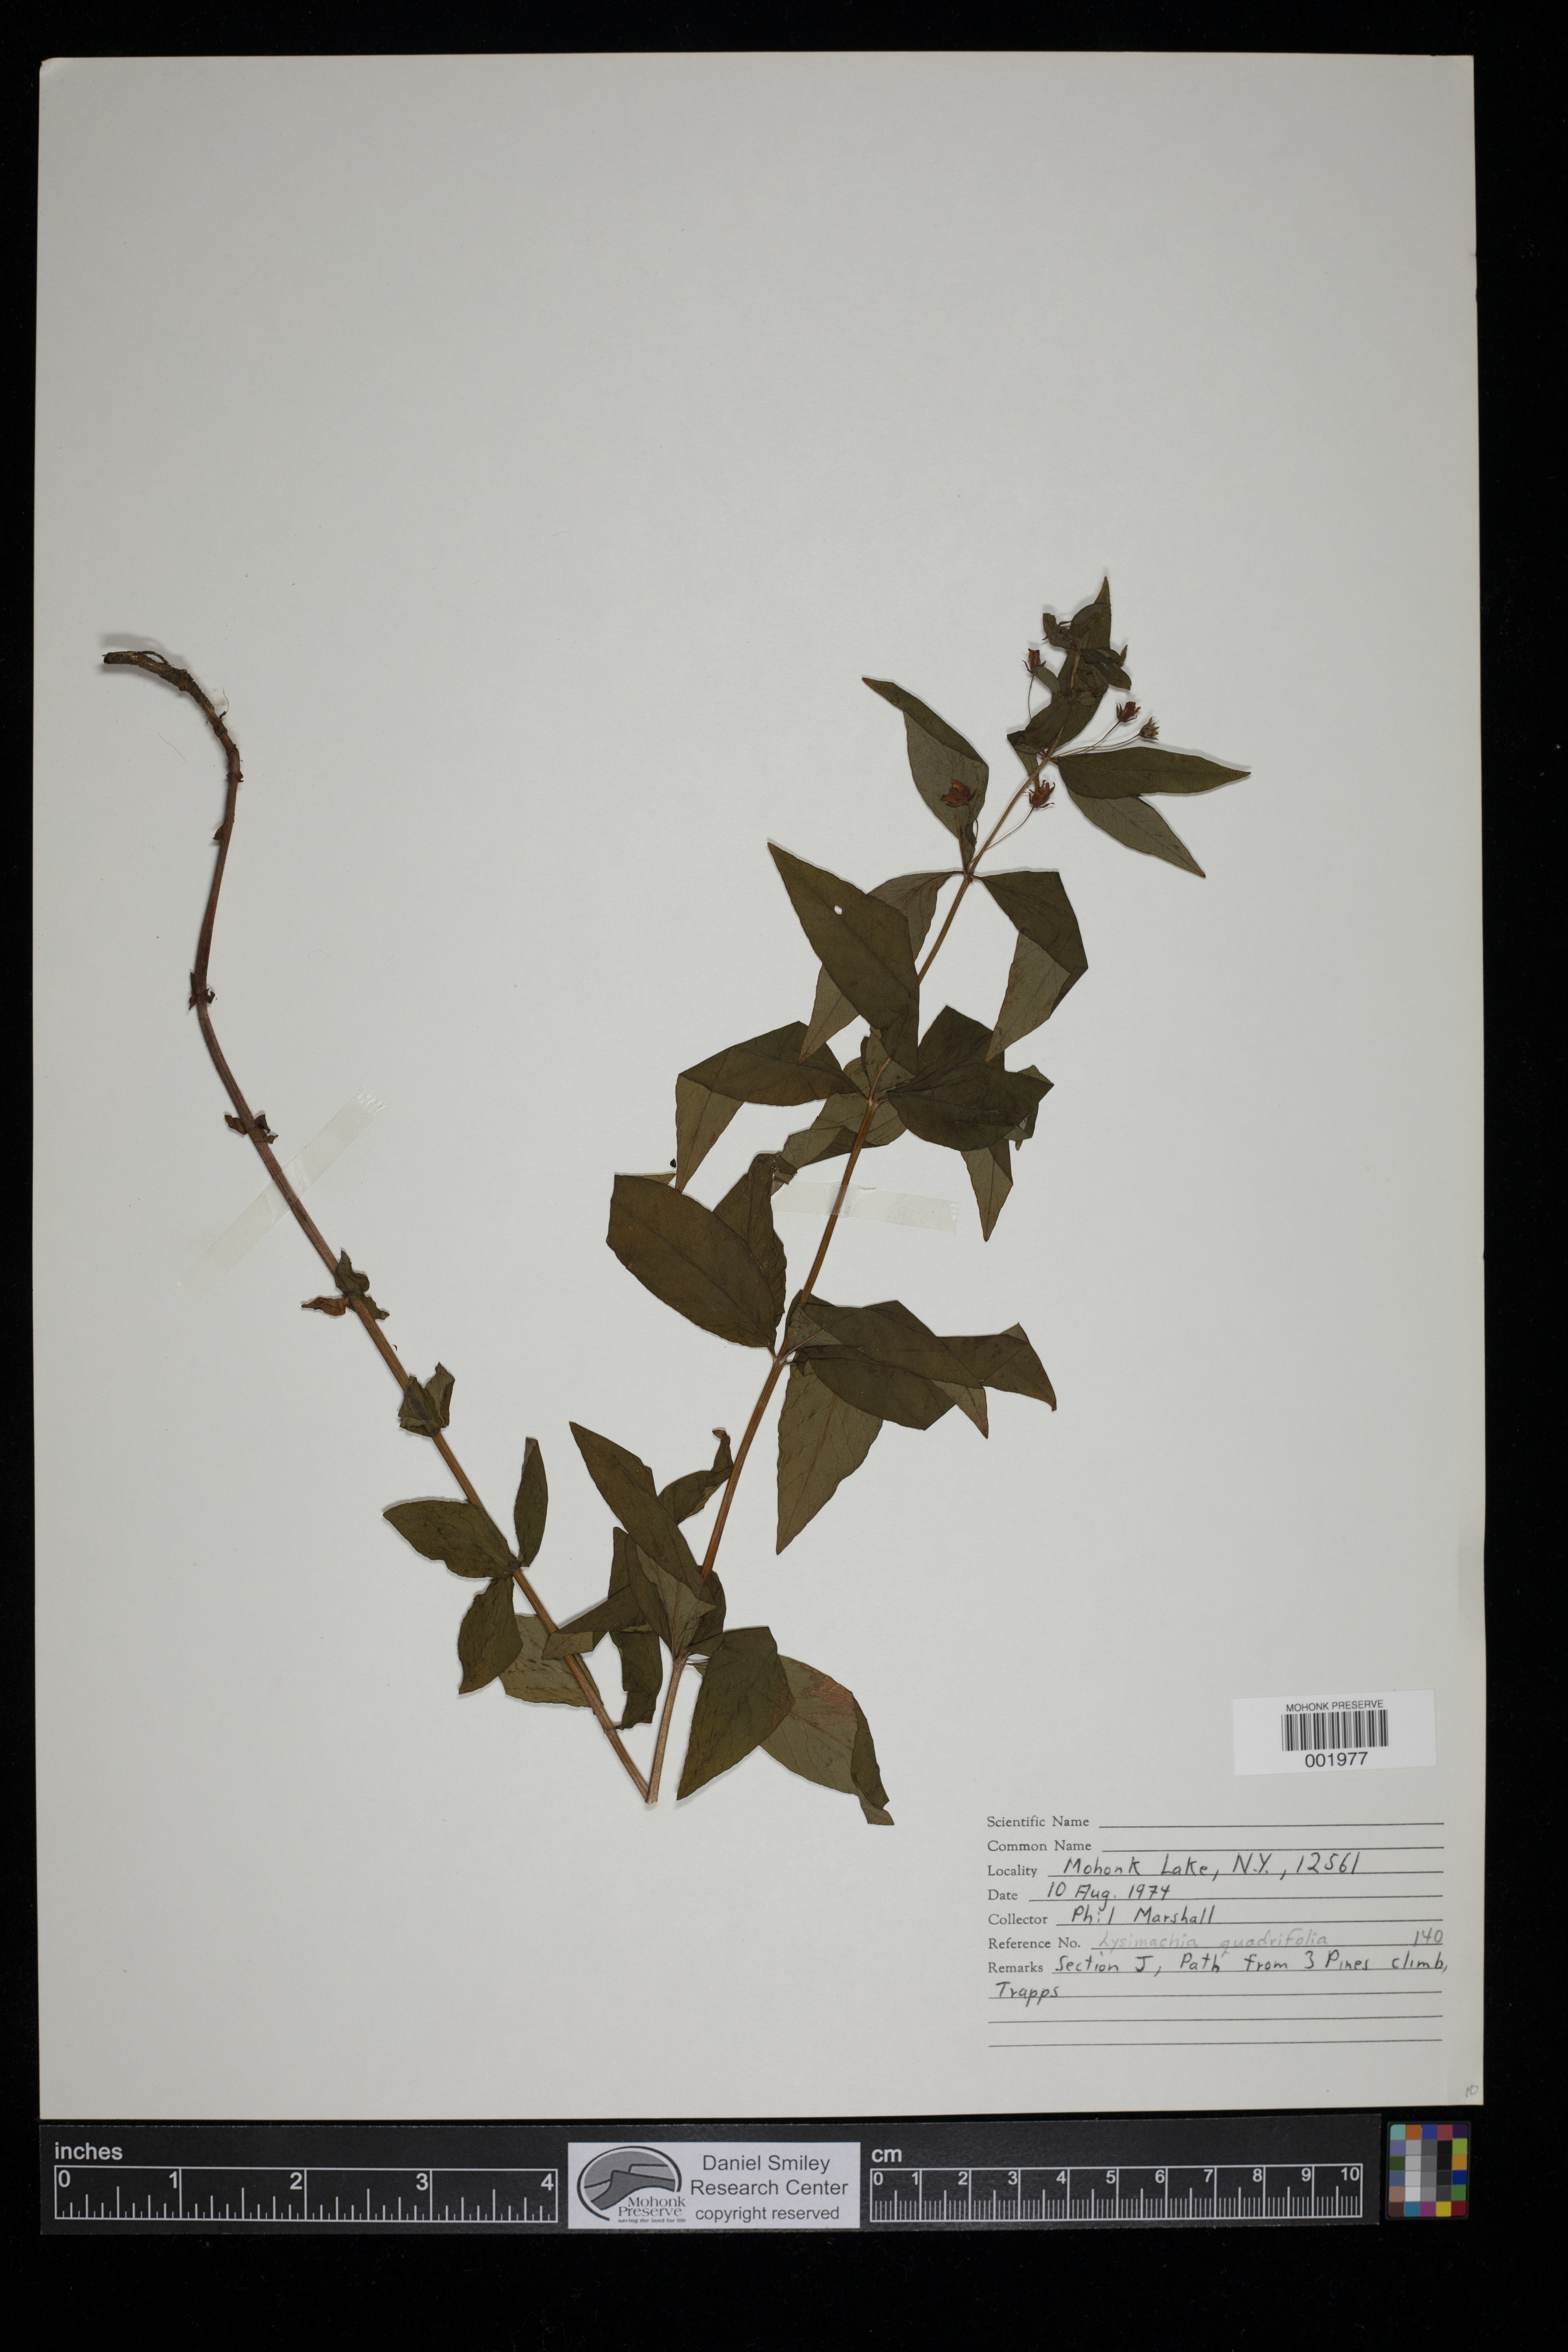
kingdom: Plantae
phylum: Tracheophyta
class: Magnoliopsida
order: Ericales
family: Primulaceae
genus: Lysimachia
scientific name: Lysimachia quadrifolia
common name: Whorled loosestrife
